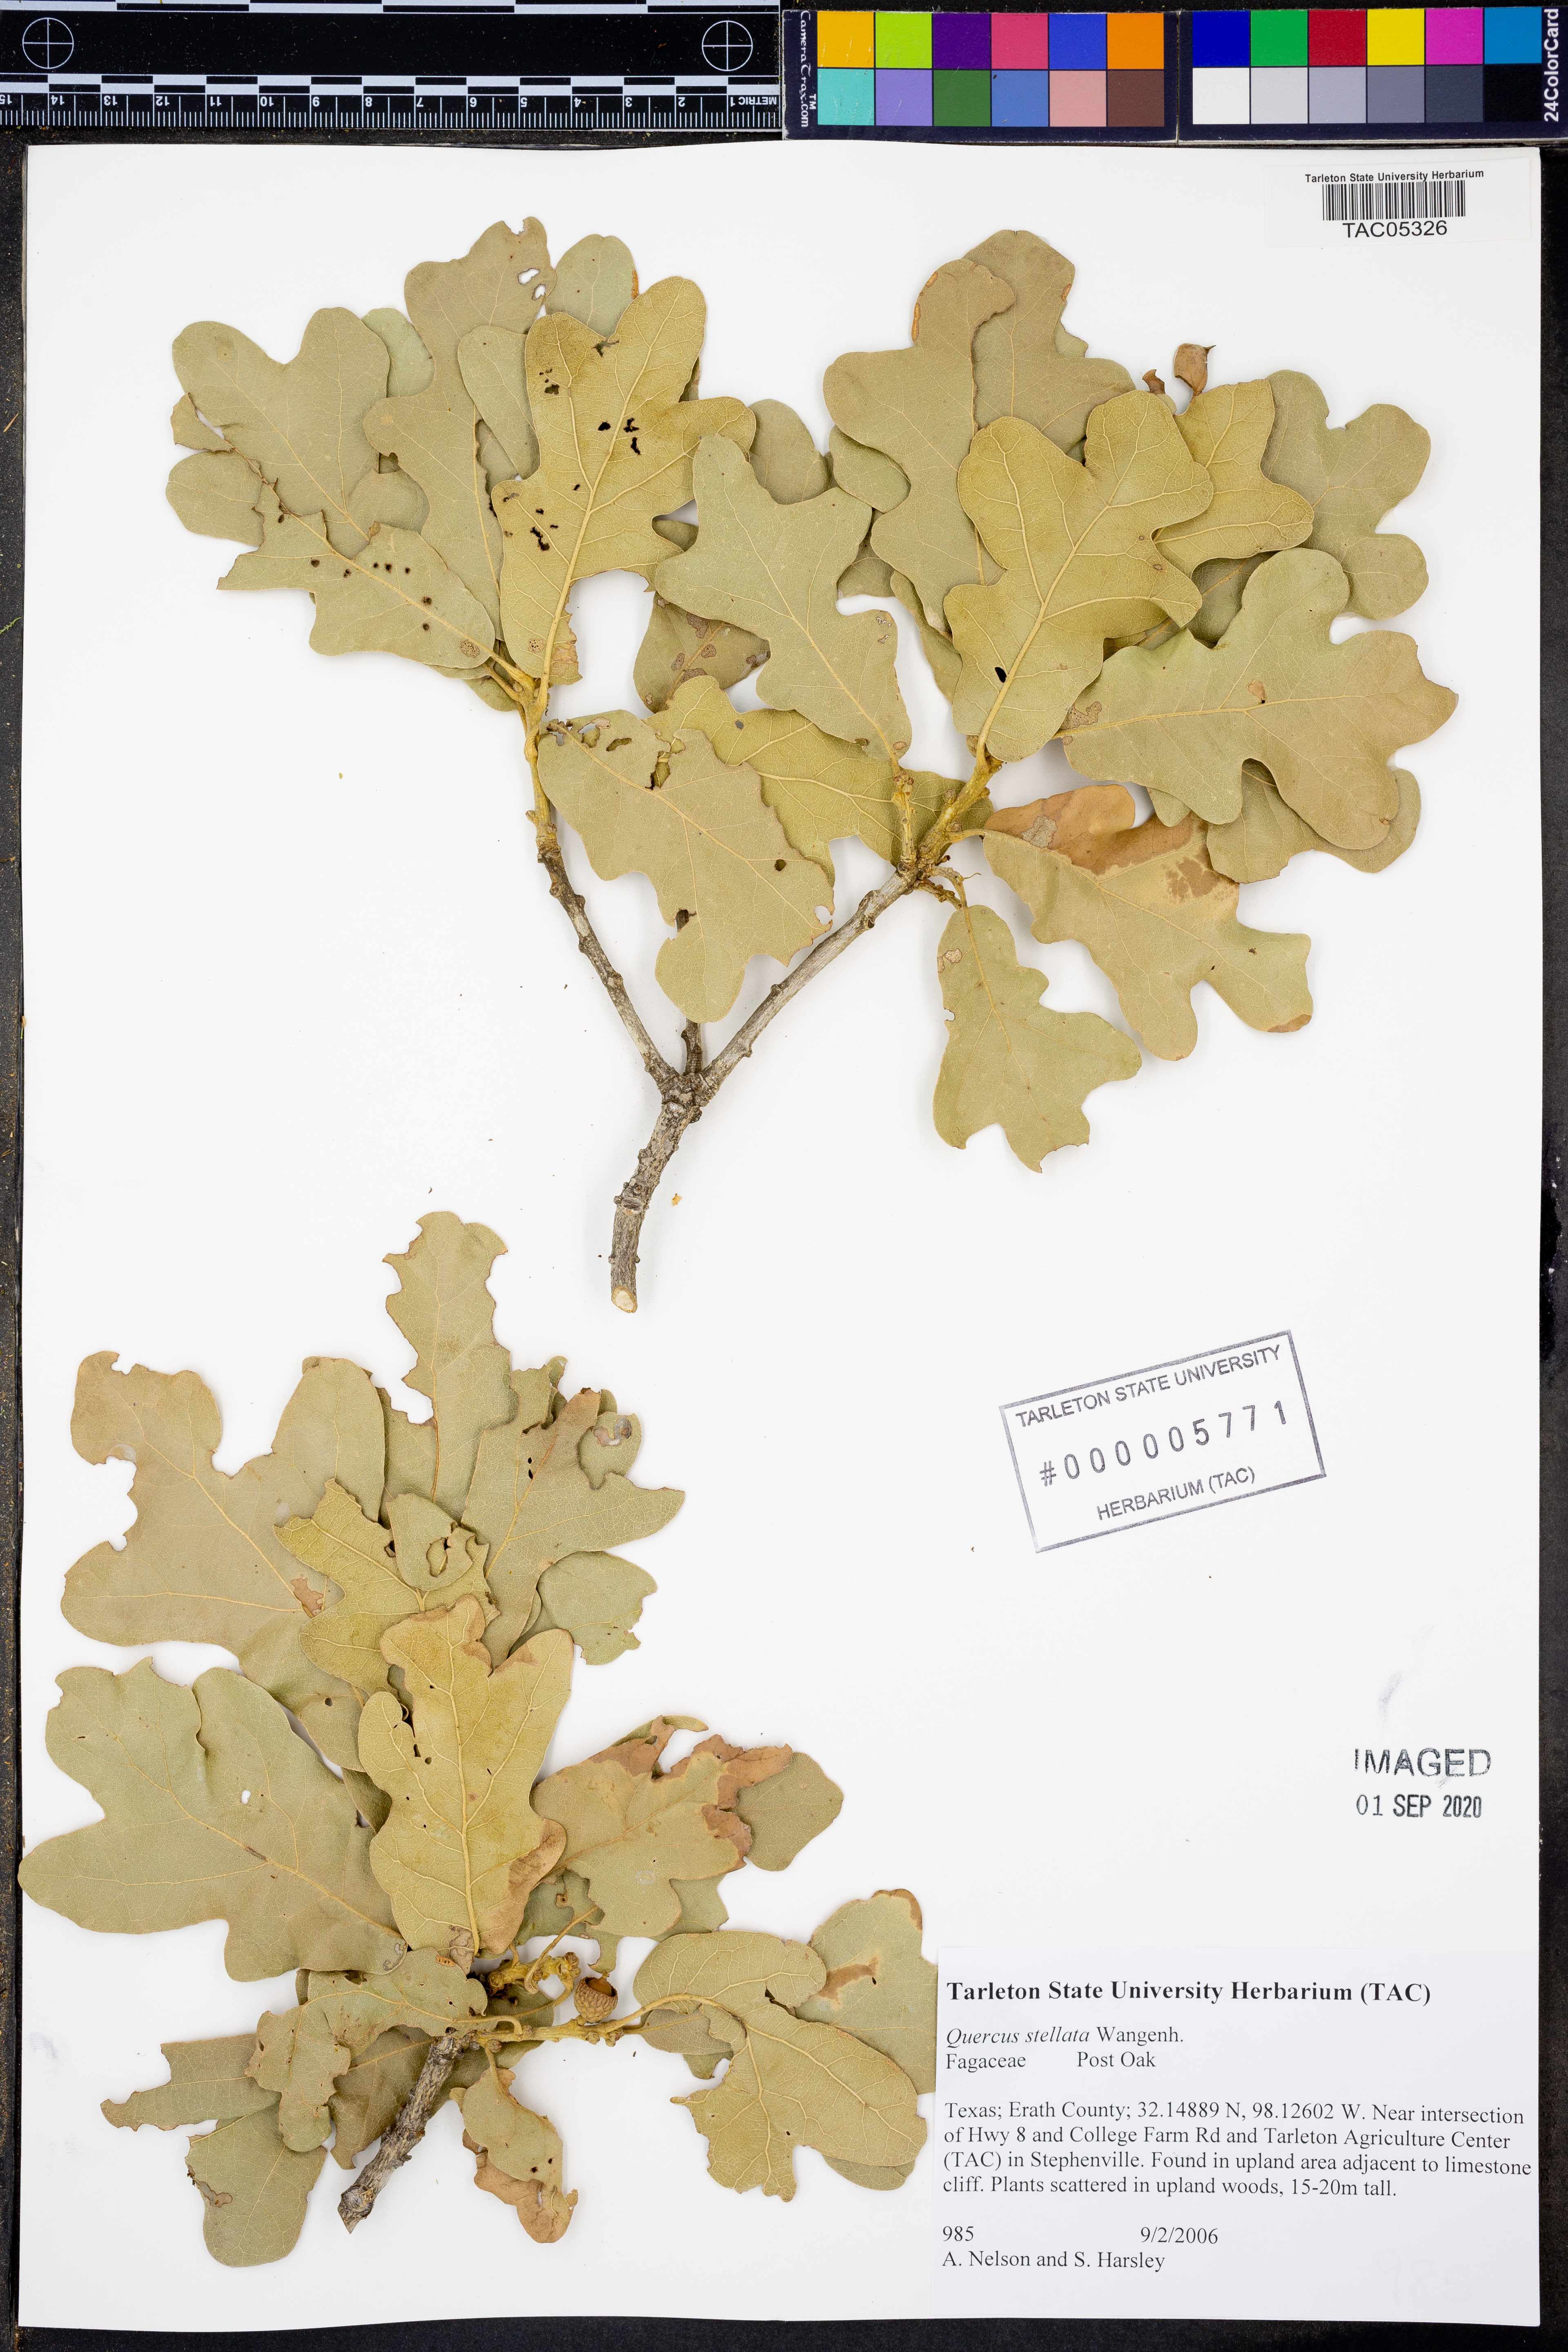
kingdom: Plantae
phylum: Tracheophyta
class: Magnoliopsida
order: Fagales
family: Fagaceae
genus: Quercus
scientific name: Quercus stellata
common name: Post oak
